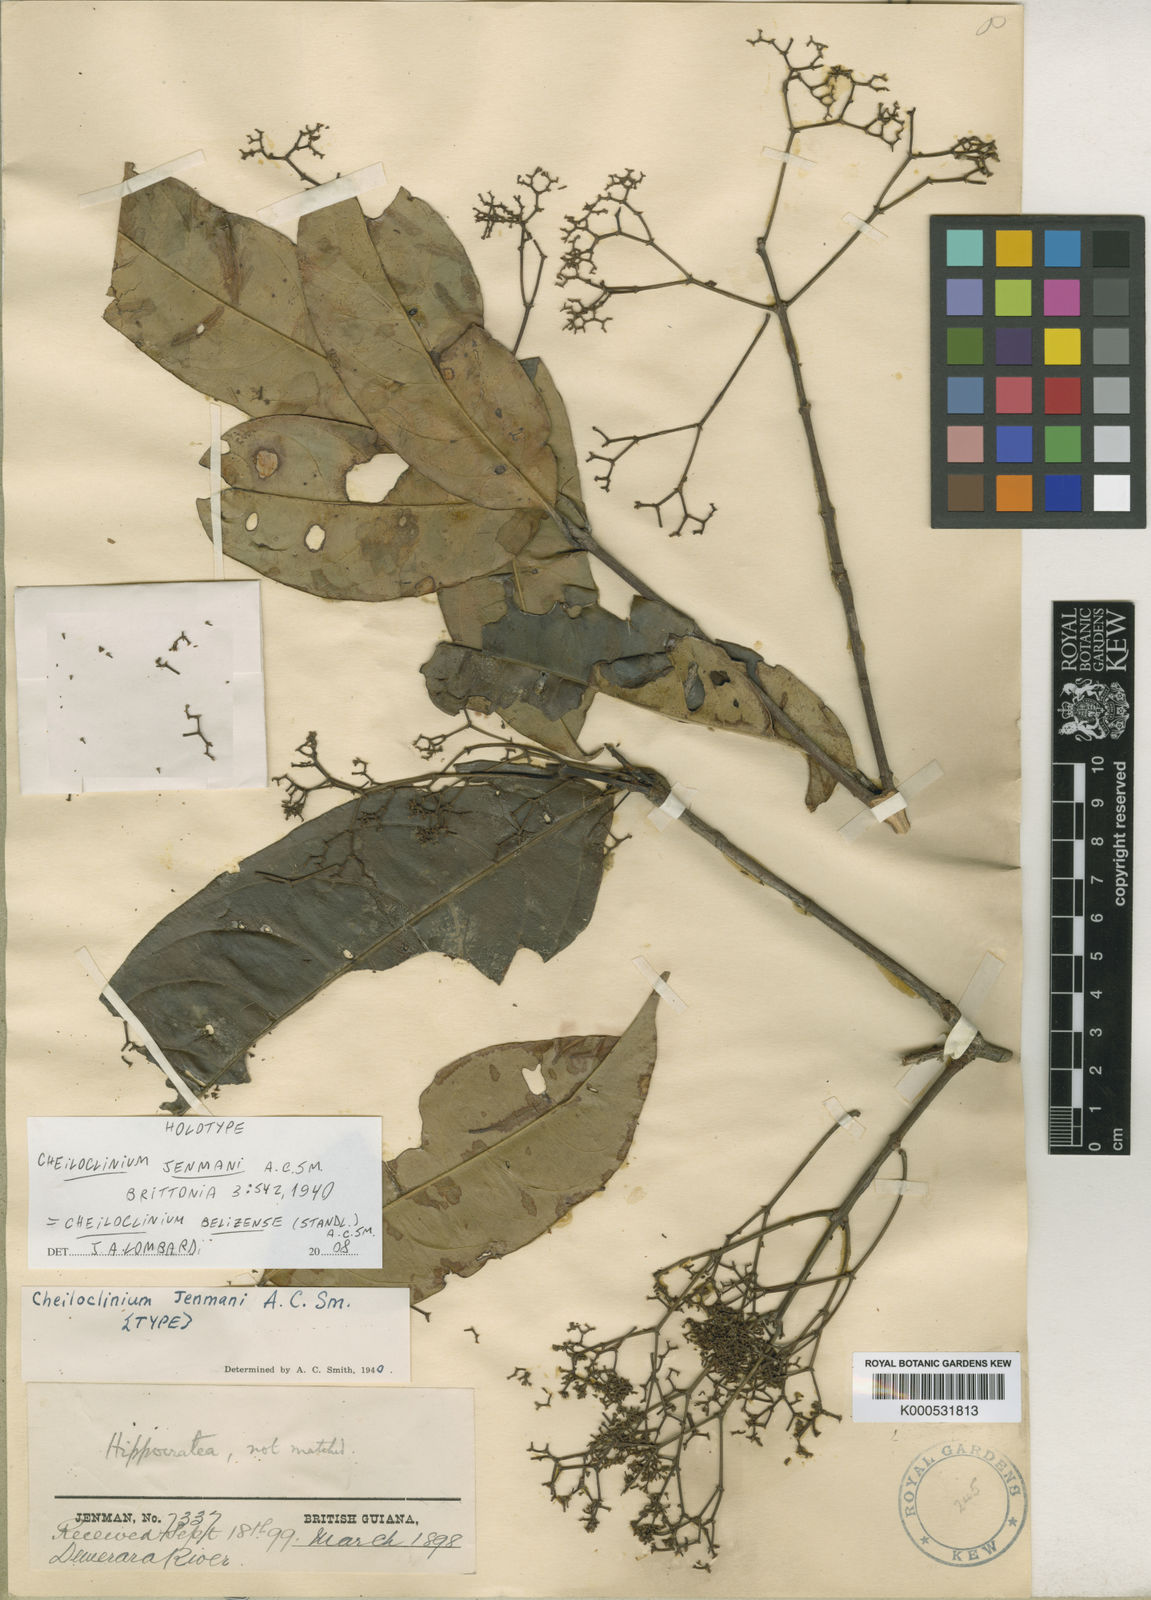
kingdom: Plantae
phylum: Tracheophyta
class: Magnoliopsida
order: Celastrales
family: Celastraceae
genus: Cheiloclinium
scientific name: Cheiloclinium belizense
